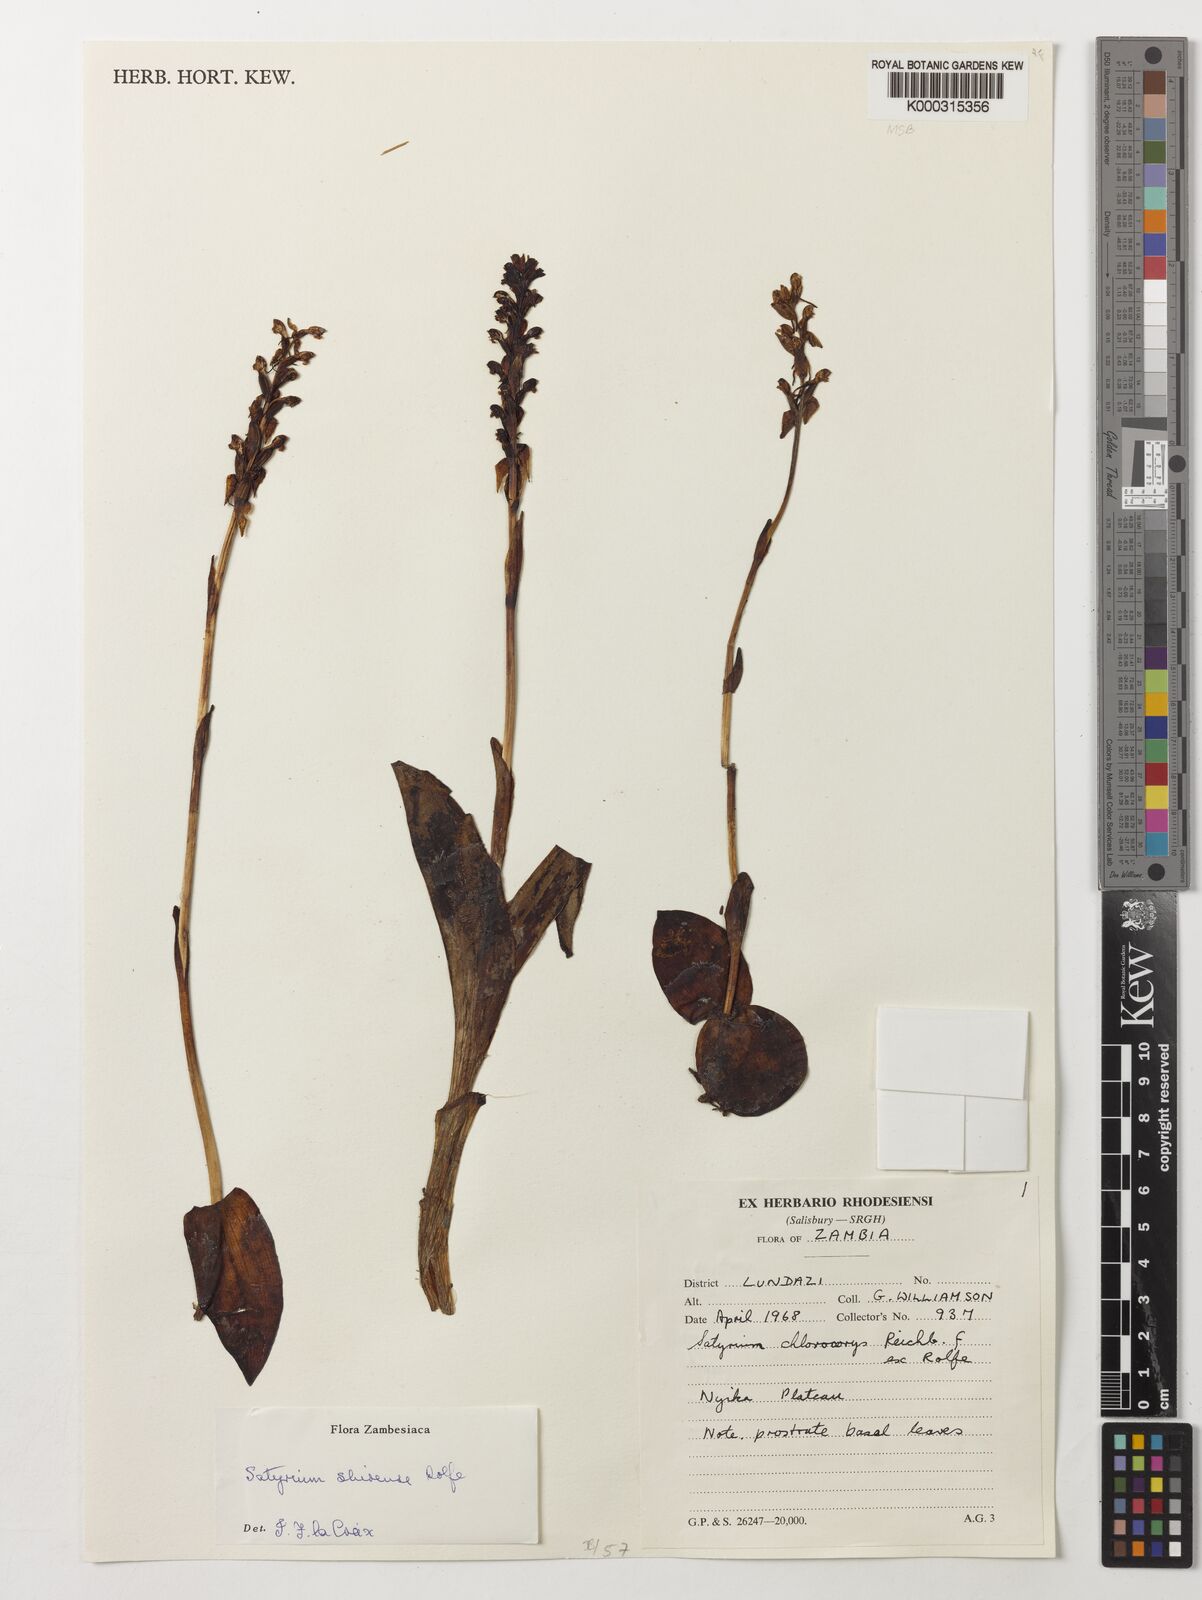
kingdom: Plantae
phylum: Tracheophyta
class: Liliopsida
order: Asparagales
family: Orchidaceae
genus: Satyrium
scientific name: Satyrium shirense
